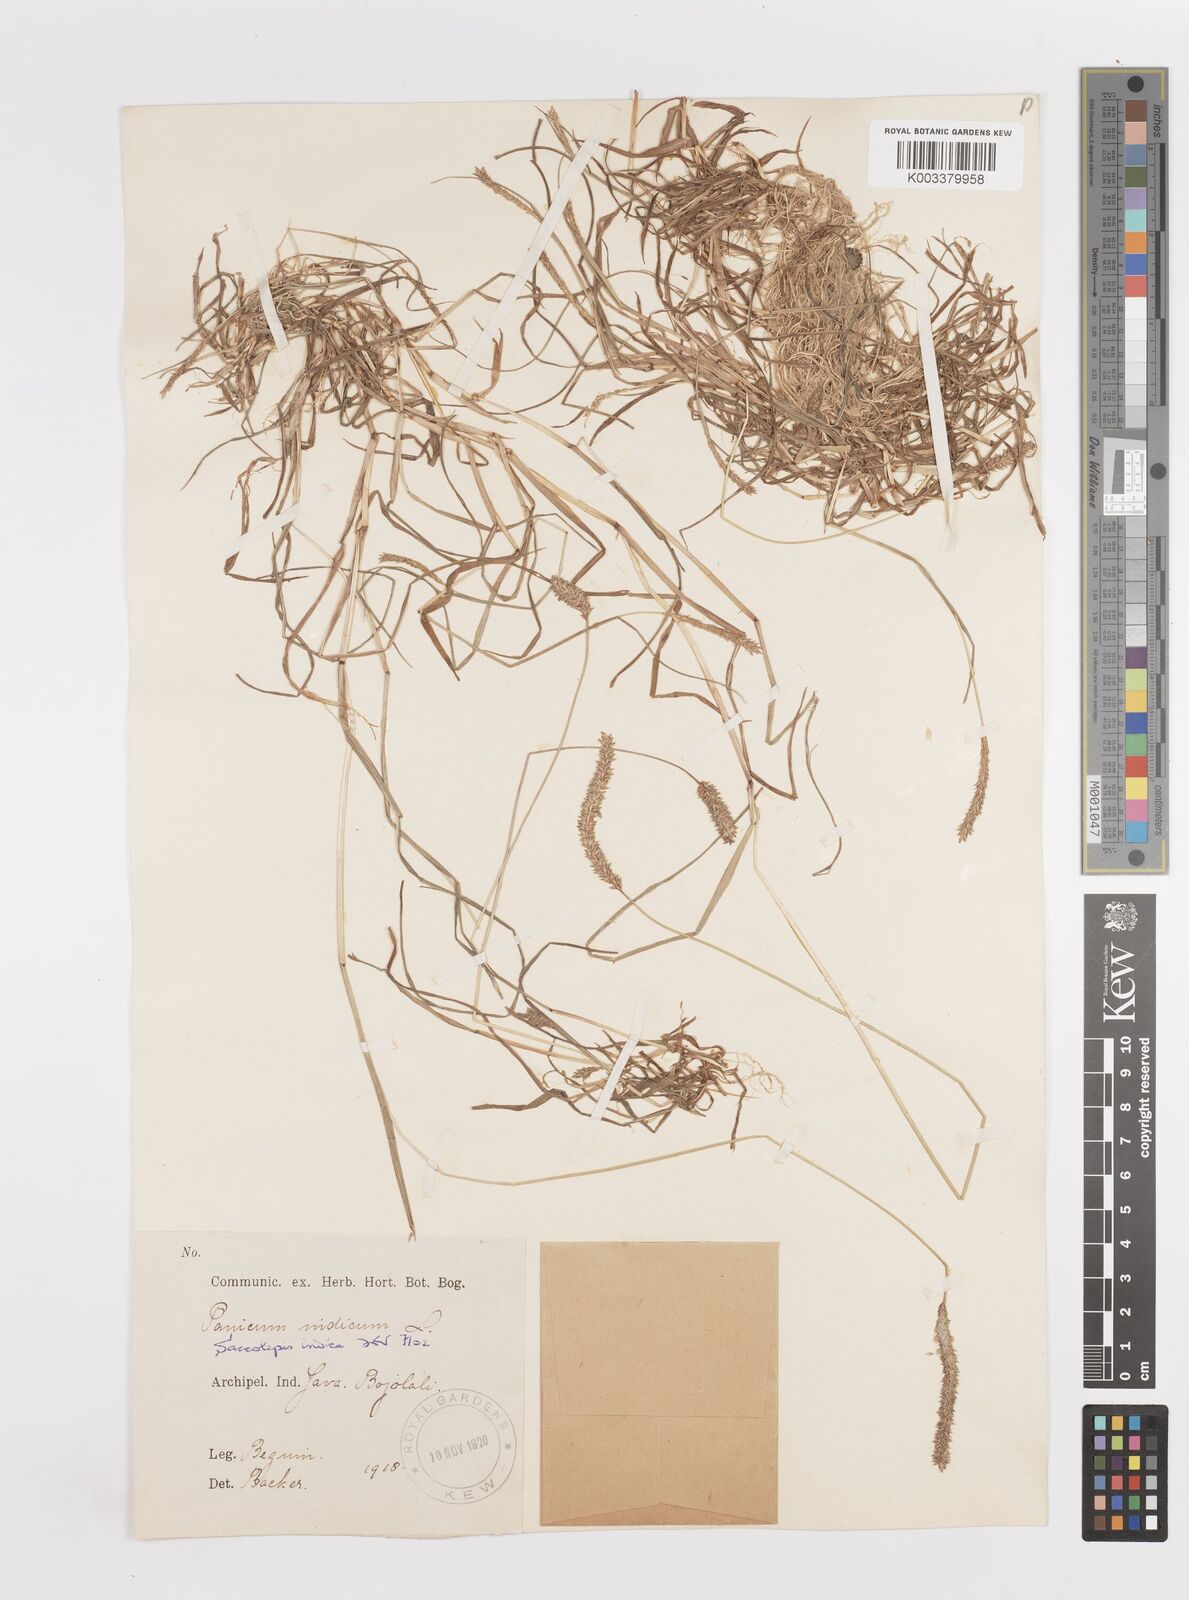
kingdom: Plantae
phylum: Tracheophyta
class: Liliopsida
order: Poales
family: Poaceae
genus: Sacciolepis
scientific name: Sacciolepis indica
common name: Glenwoodgrass
